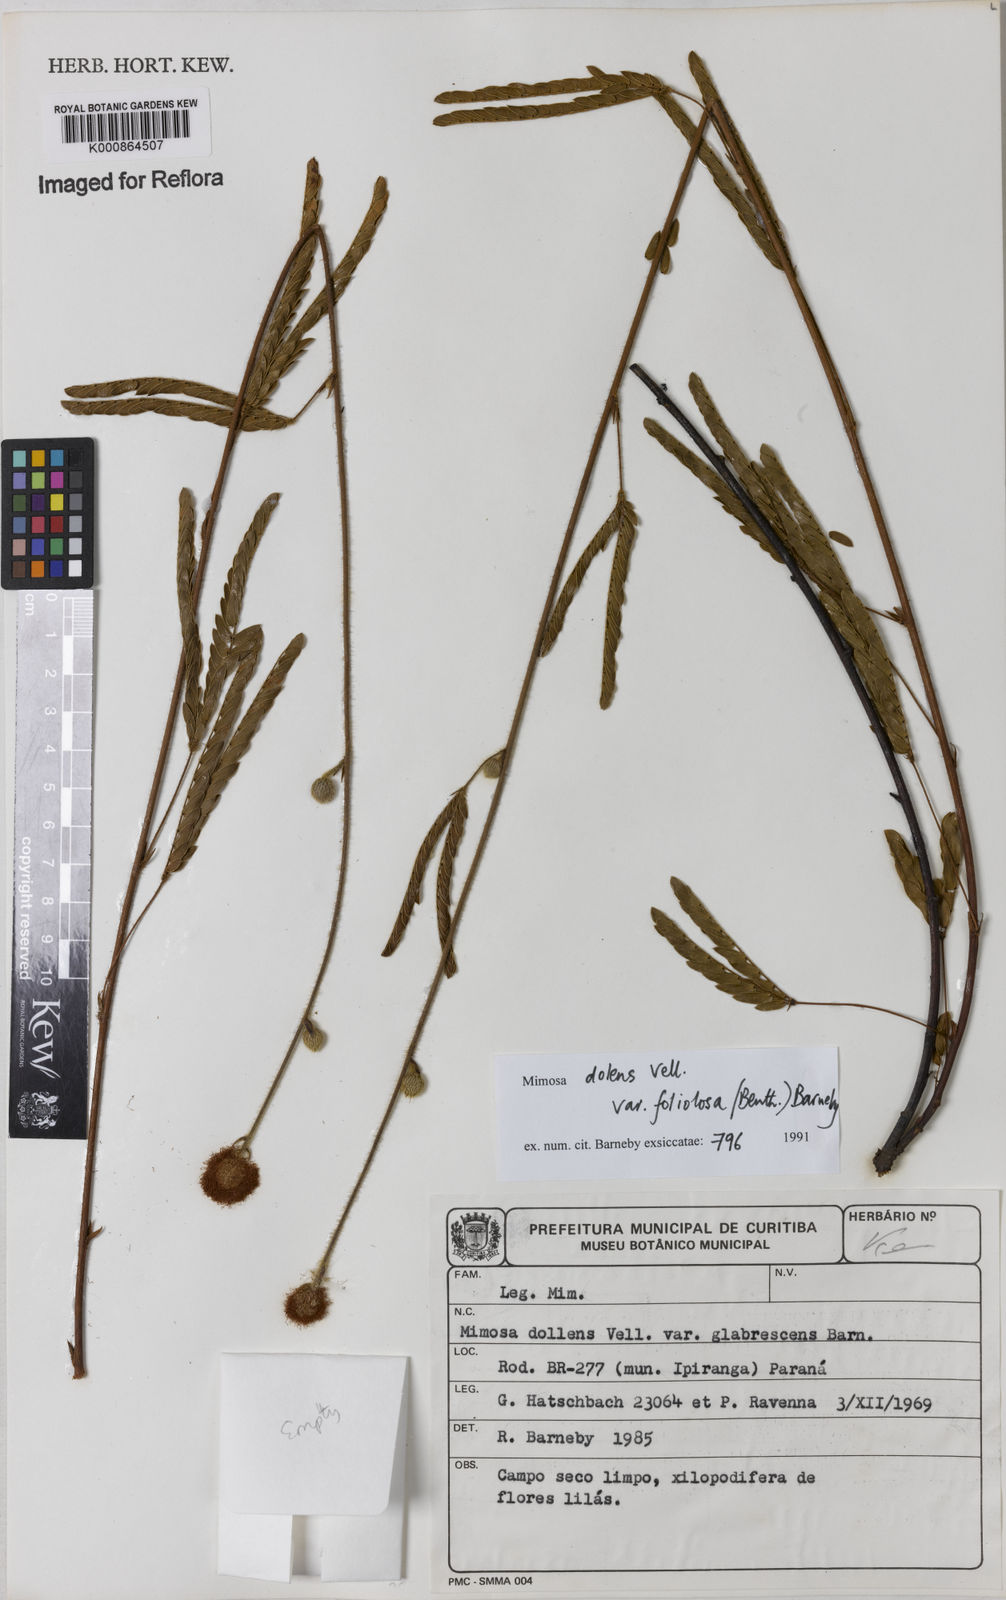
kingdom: Plantae
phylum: Tracheophyta
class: Magnoliopsida
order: Fabales
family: Fabaceae
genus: Mimosa
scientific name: Mimosa dolens
